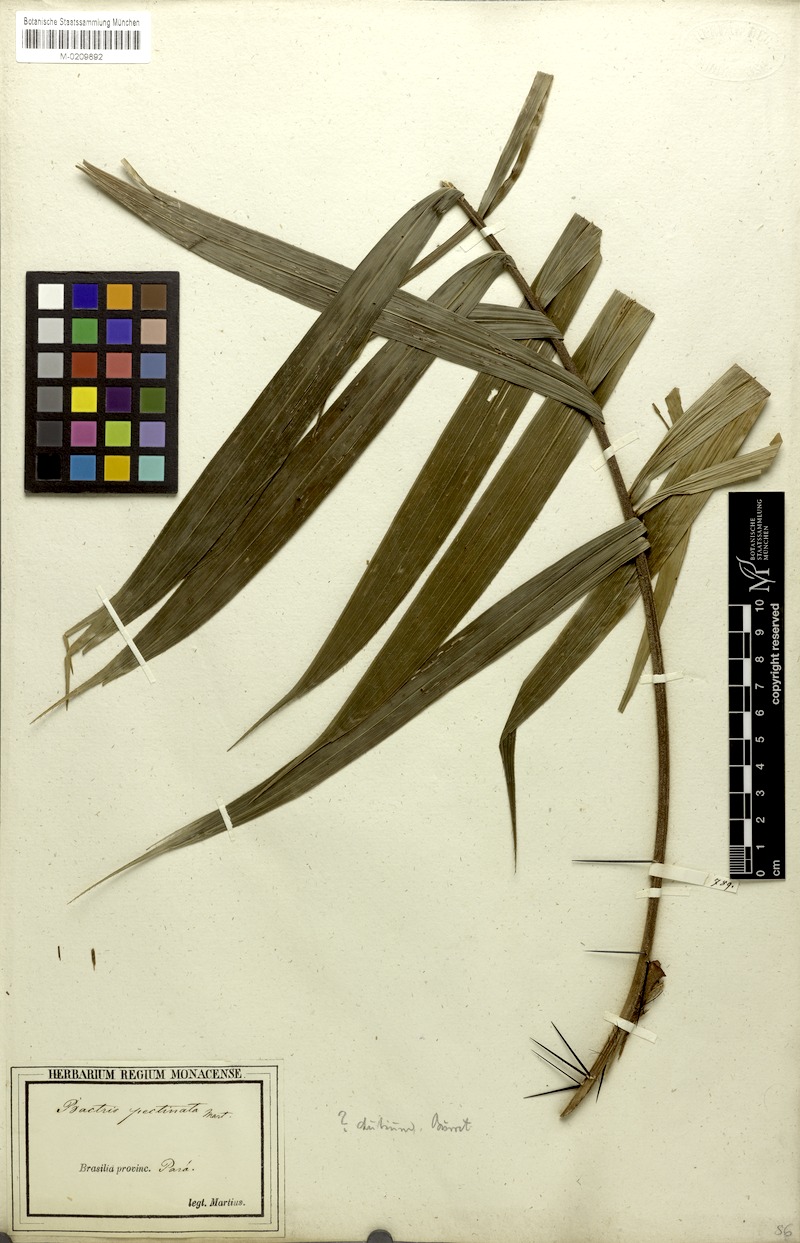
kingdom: Plantae
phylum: Tracheophyta
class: Liliopsida
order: Arecales
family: Arecaceae
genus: Bactris
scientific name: Bactris hirta
